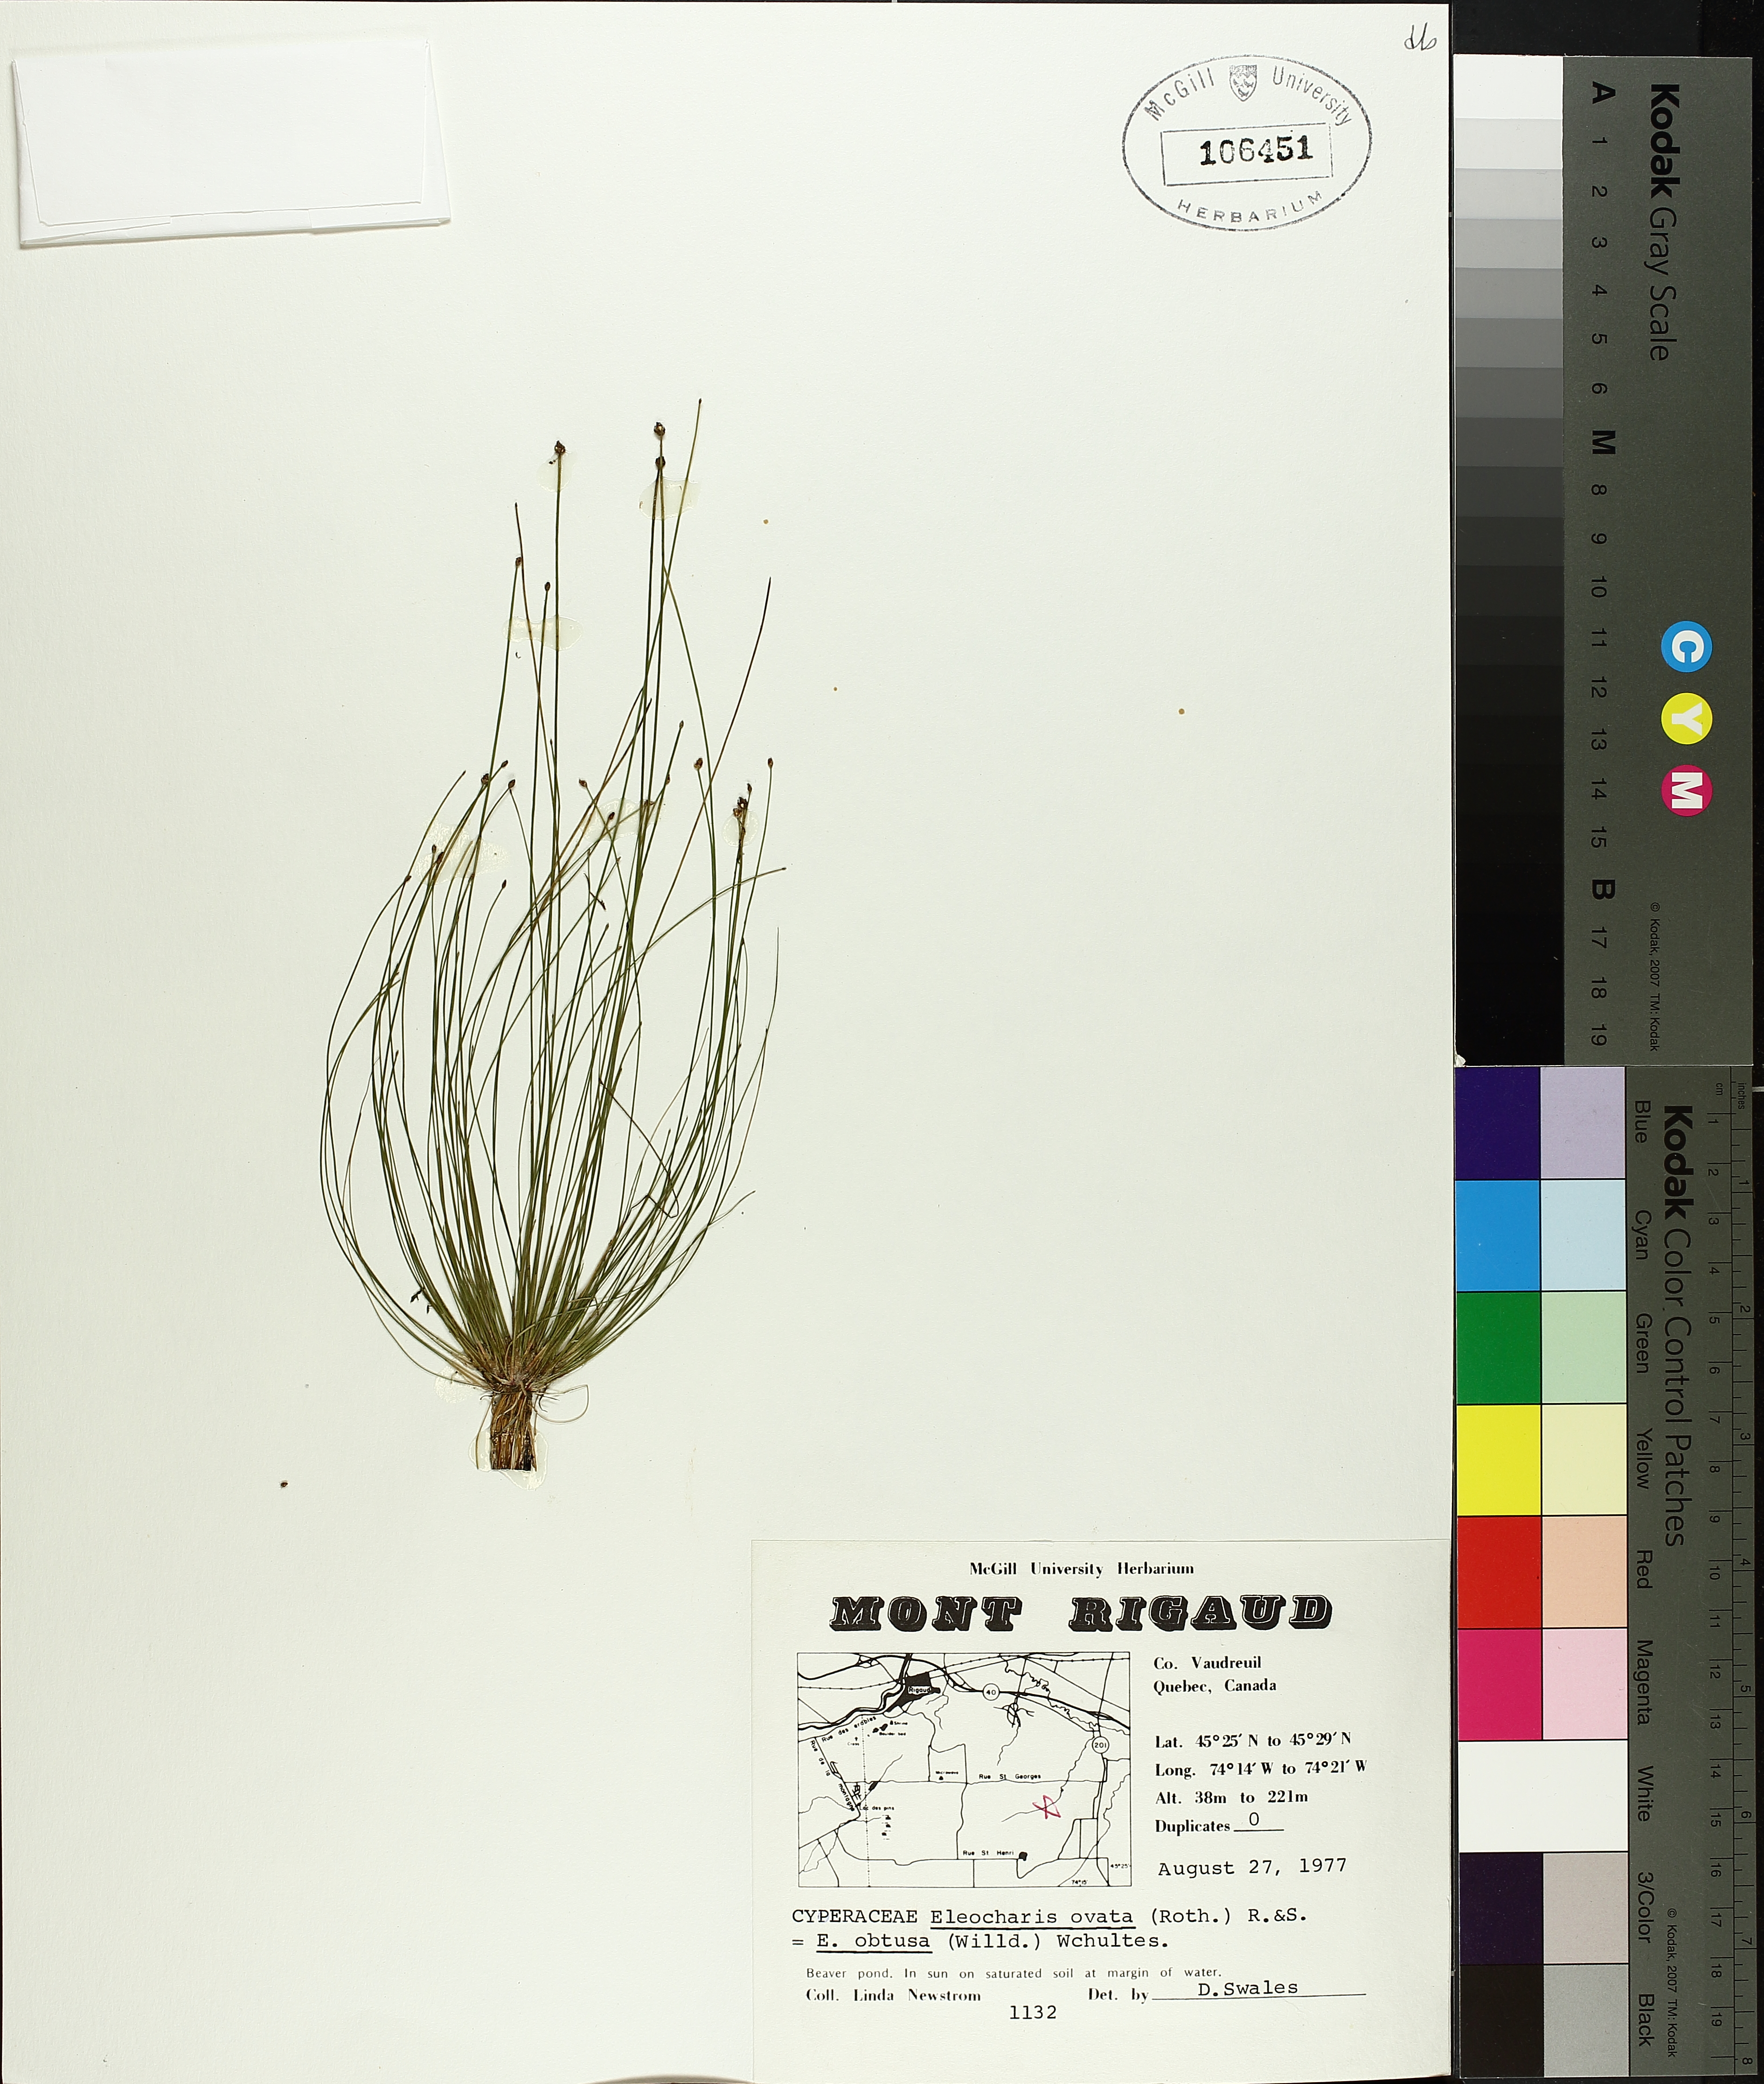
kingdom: Plantae
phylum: Tracheophyta
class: Liliopsida
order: Poales
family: Cyperaceae
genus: Eleocharis
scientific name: Eleocharis obtusa
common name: Blunt spikerush
